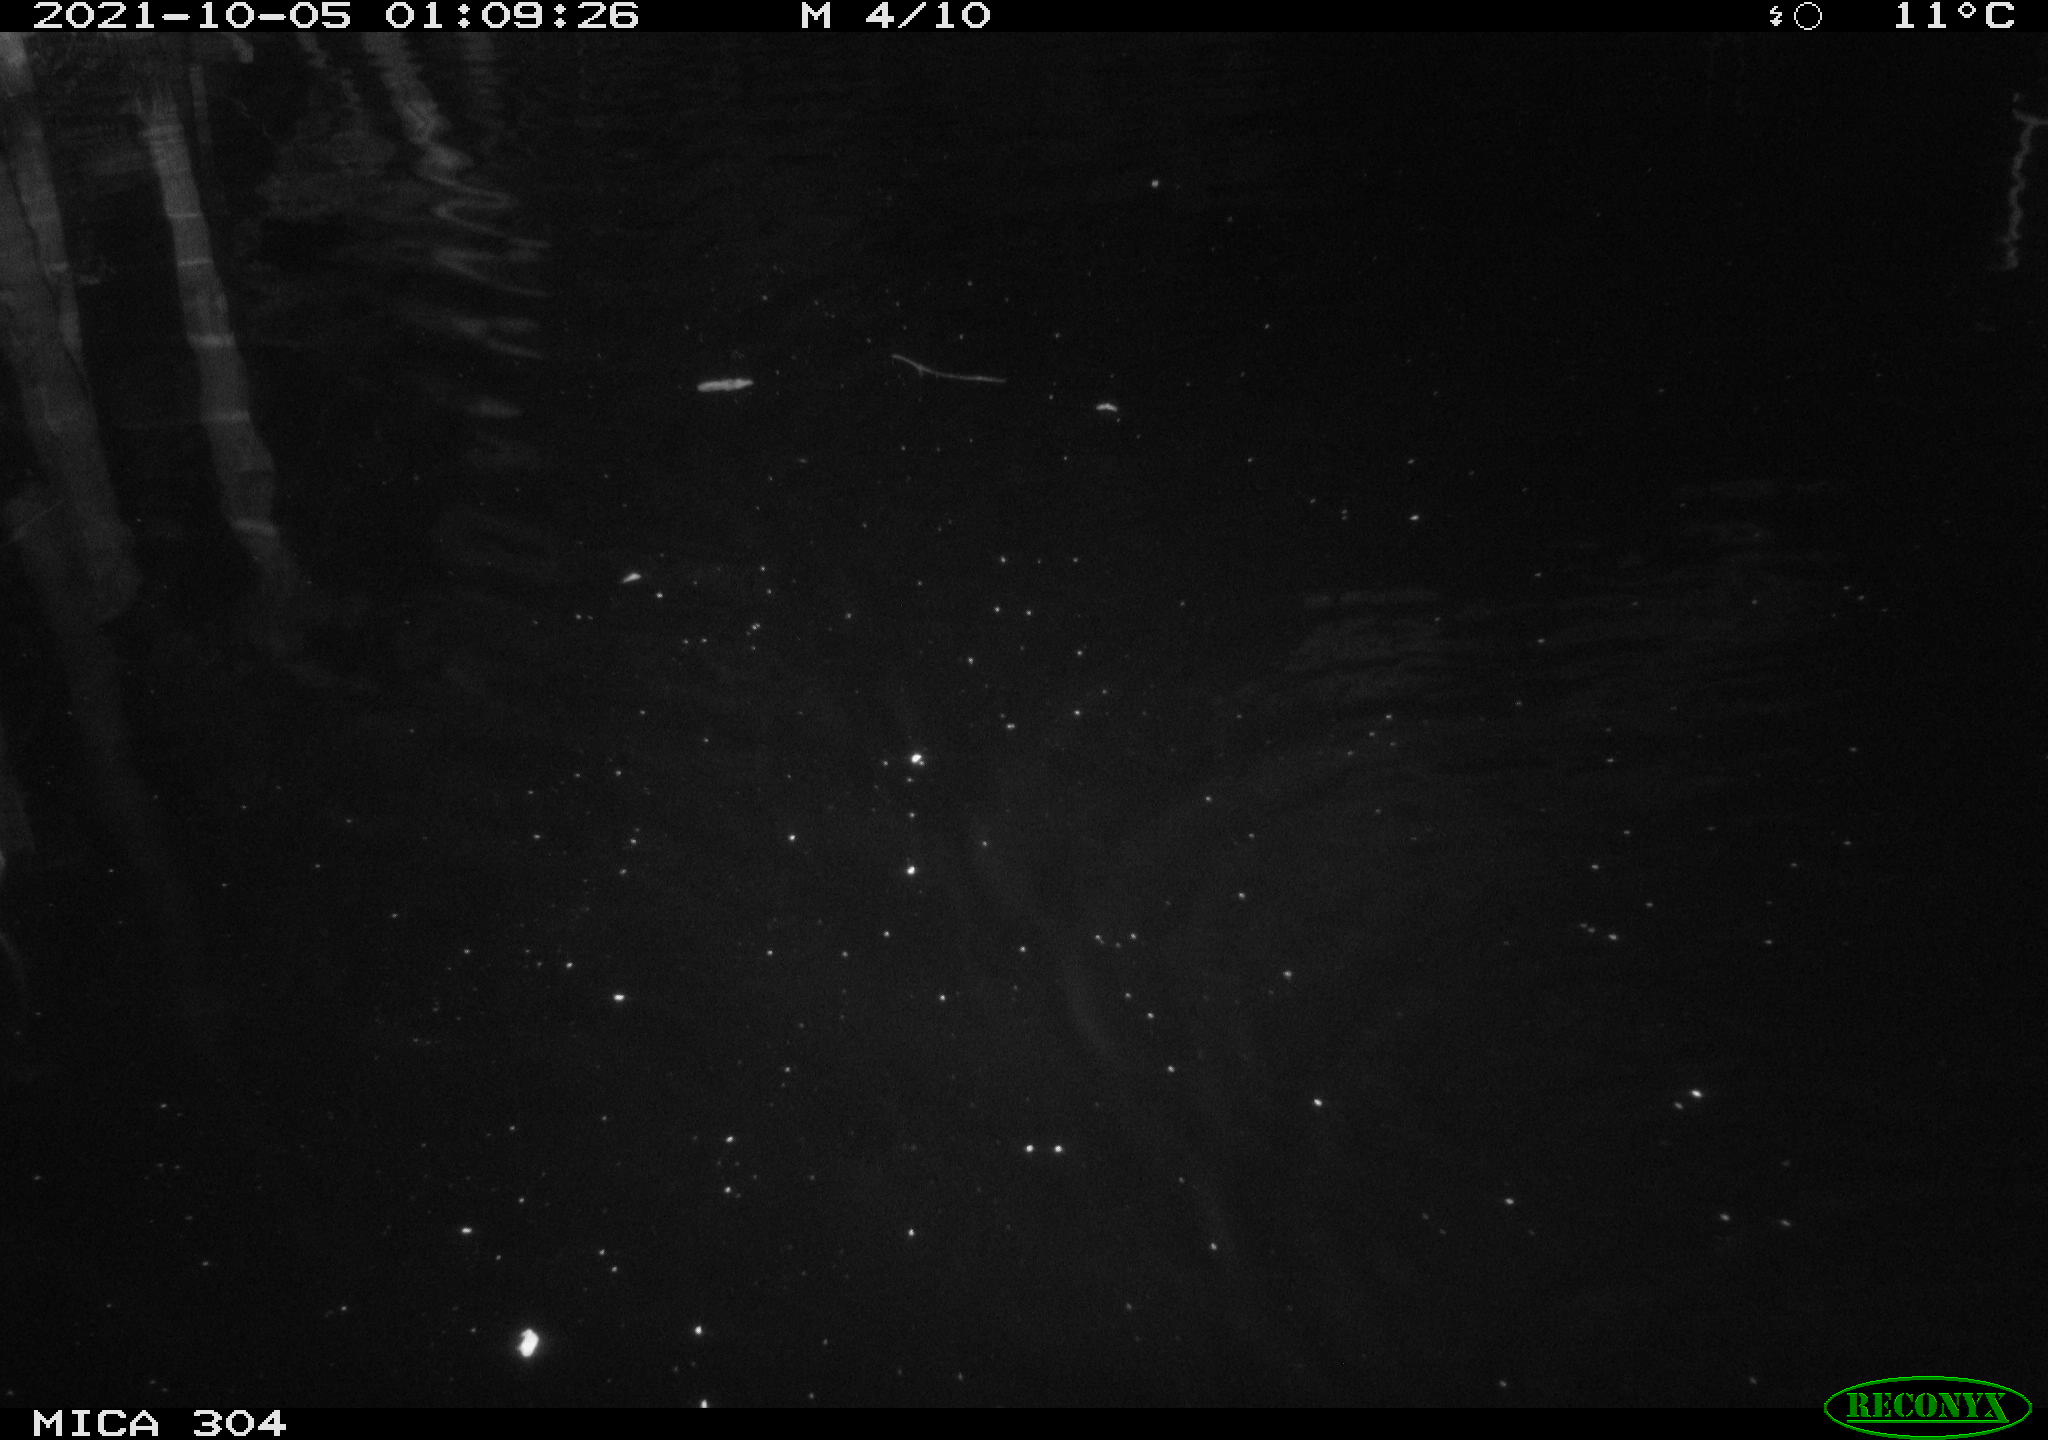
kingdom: Animalia
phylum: Chordata
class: Mammalia
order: Rodentia
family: Cricetidae
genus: Ondatra
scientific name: Ondatra zibethicus
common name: Muskrat
